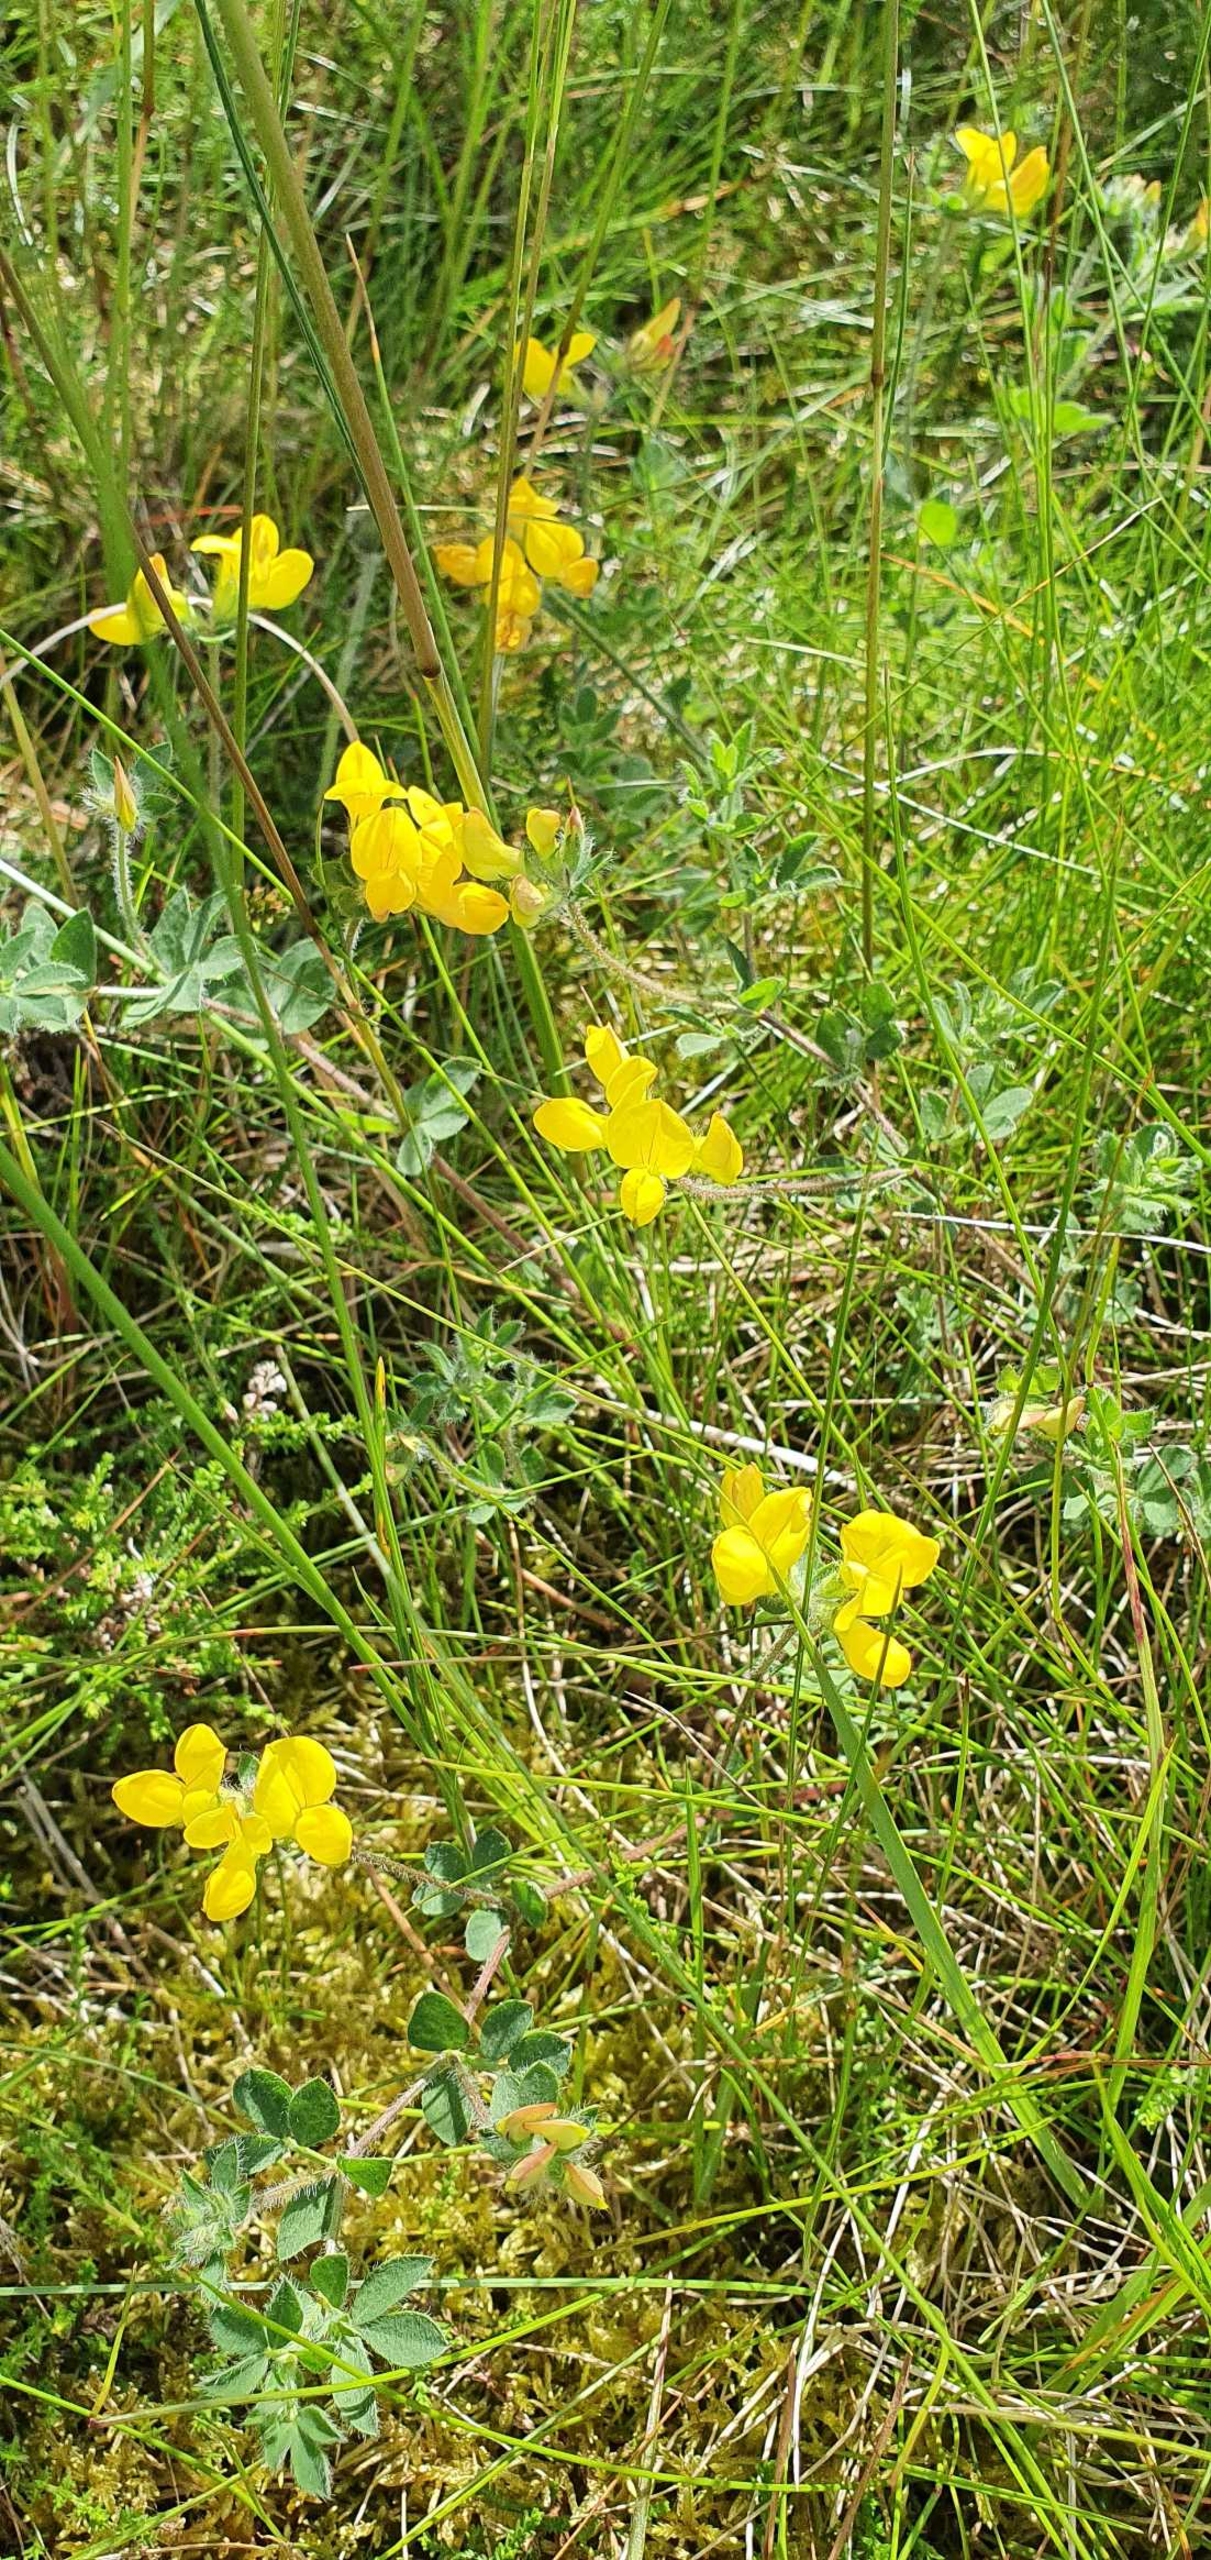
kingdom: Plantae
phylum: Tracheophyta
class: Magnoliopsida
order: Fabales
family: Fabaceae
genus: Lotus
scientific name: Lotus corniculatus
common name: Almindelig kællingetand
